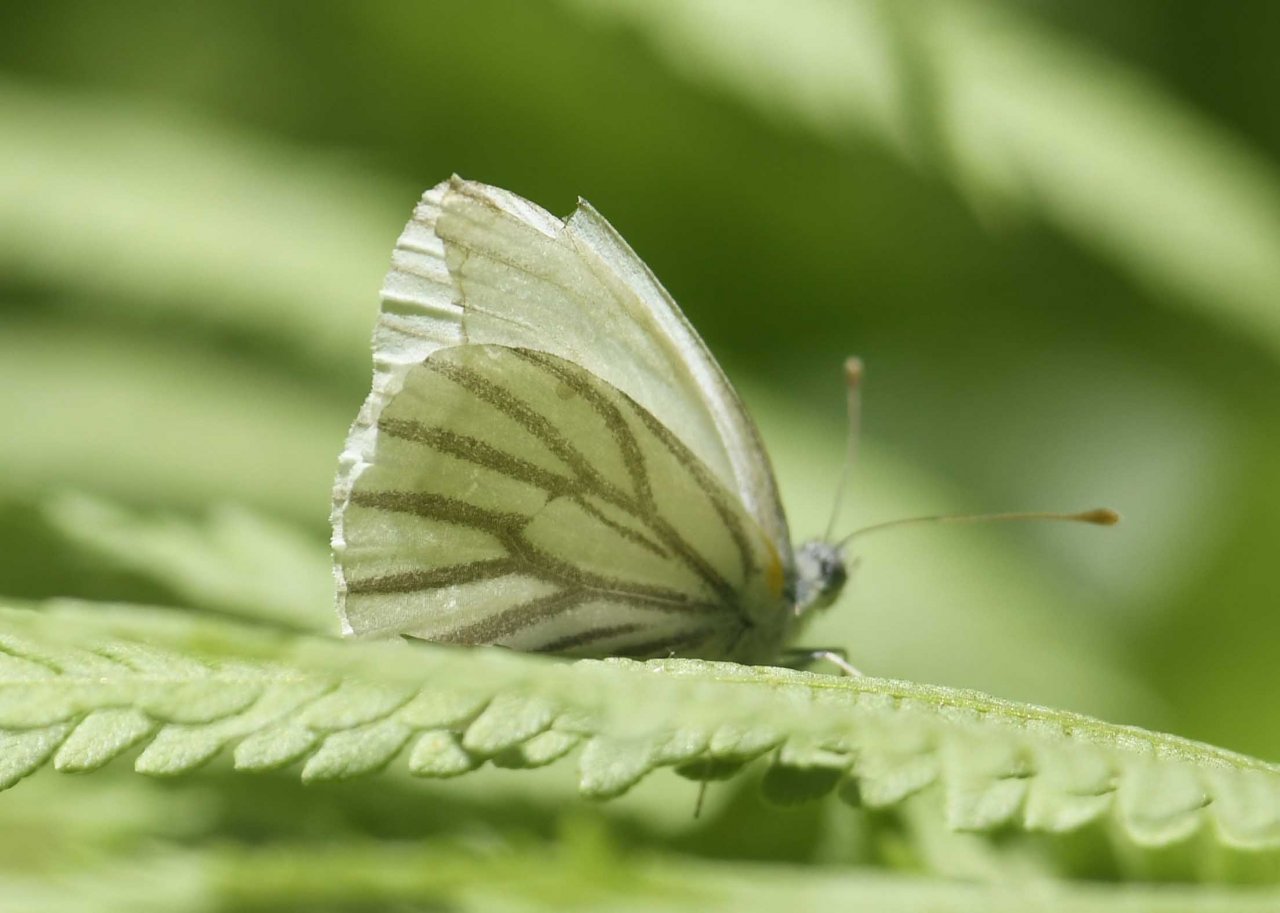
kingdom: Animalia
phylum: Arthropoda
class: Insecta
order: Lepidoptera
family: Pieridae
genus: Pieris
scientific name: Pieris oleracea
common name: Mustard White
